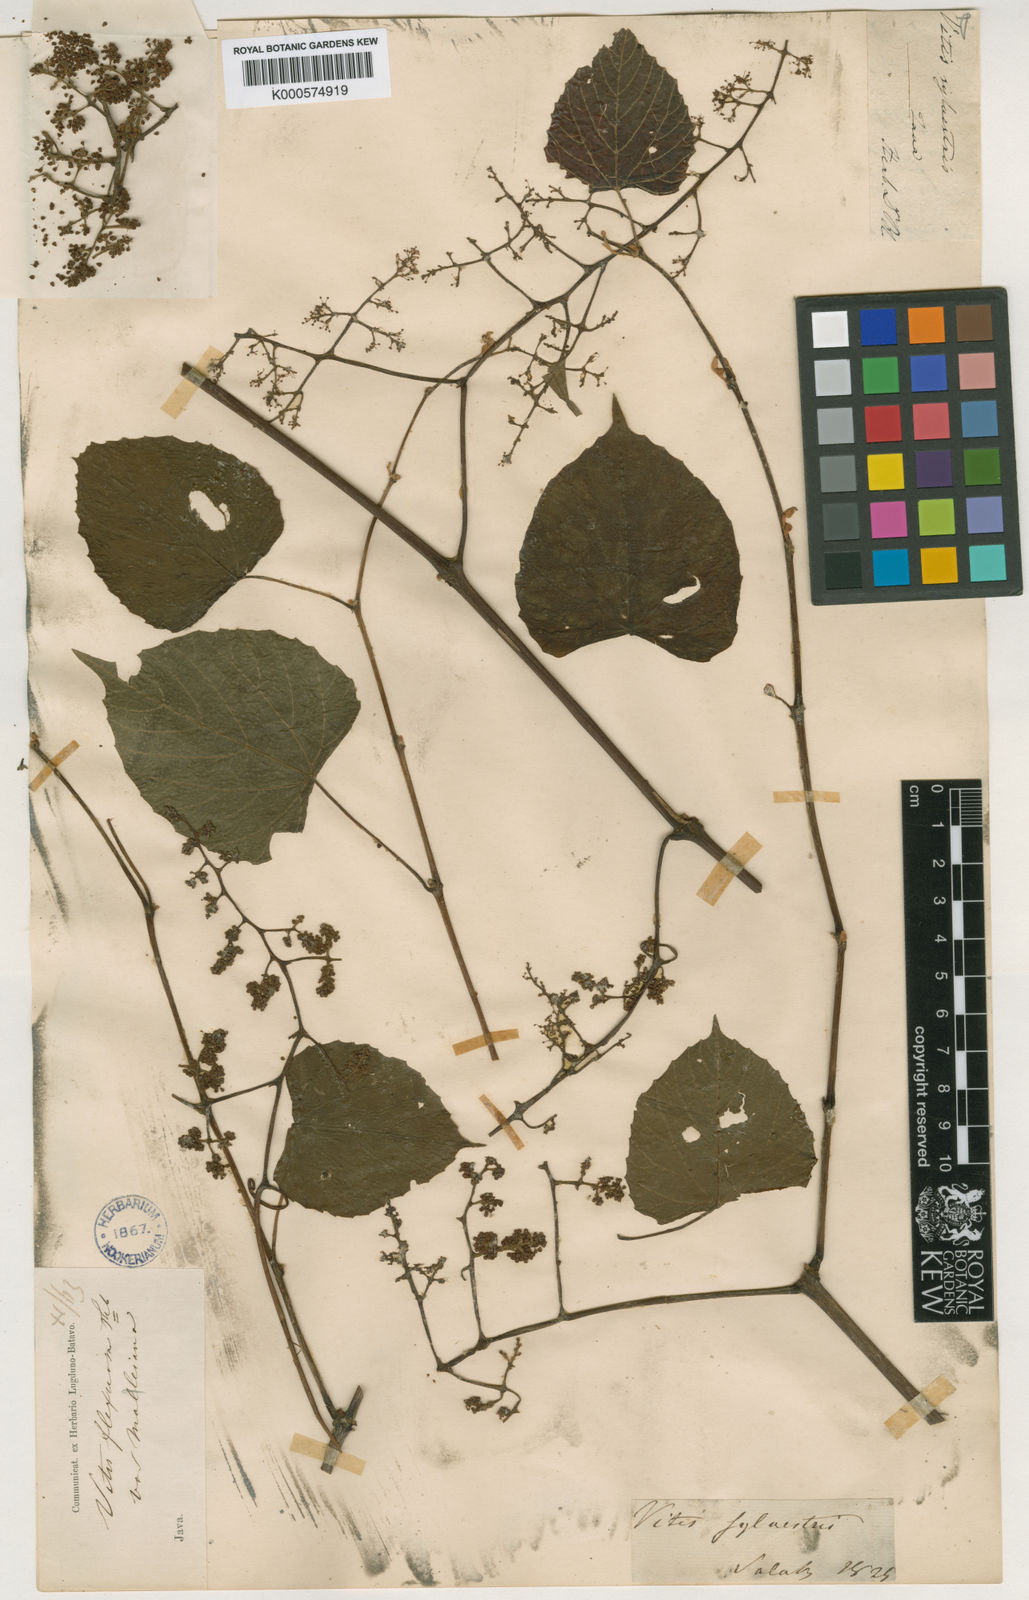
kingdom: Plantae
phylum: Tracheophyta
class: Magnoliopsida
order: Vitales
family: Vitaceae
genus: Vitis
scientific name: Vitis flexuosa
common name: Creeping grape
